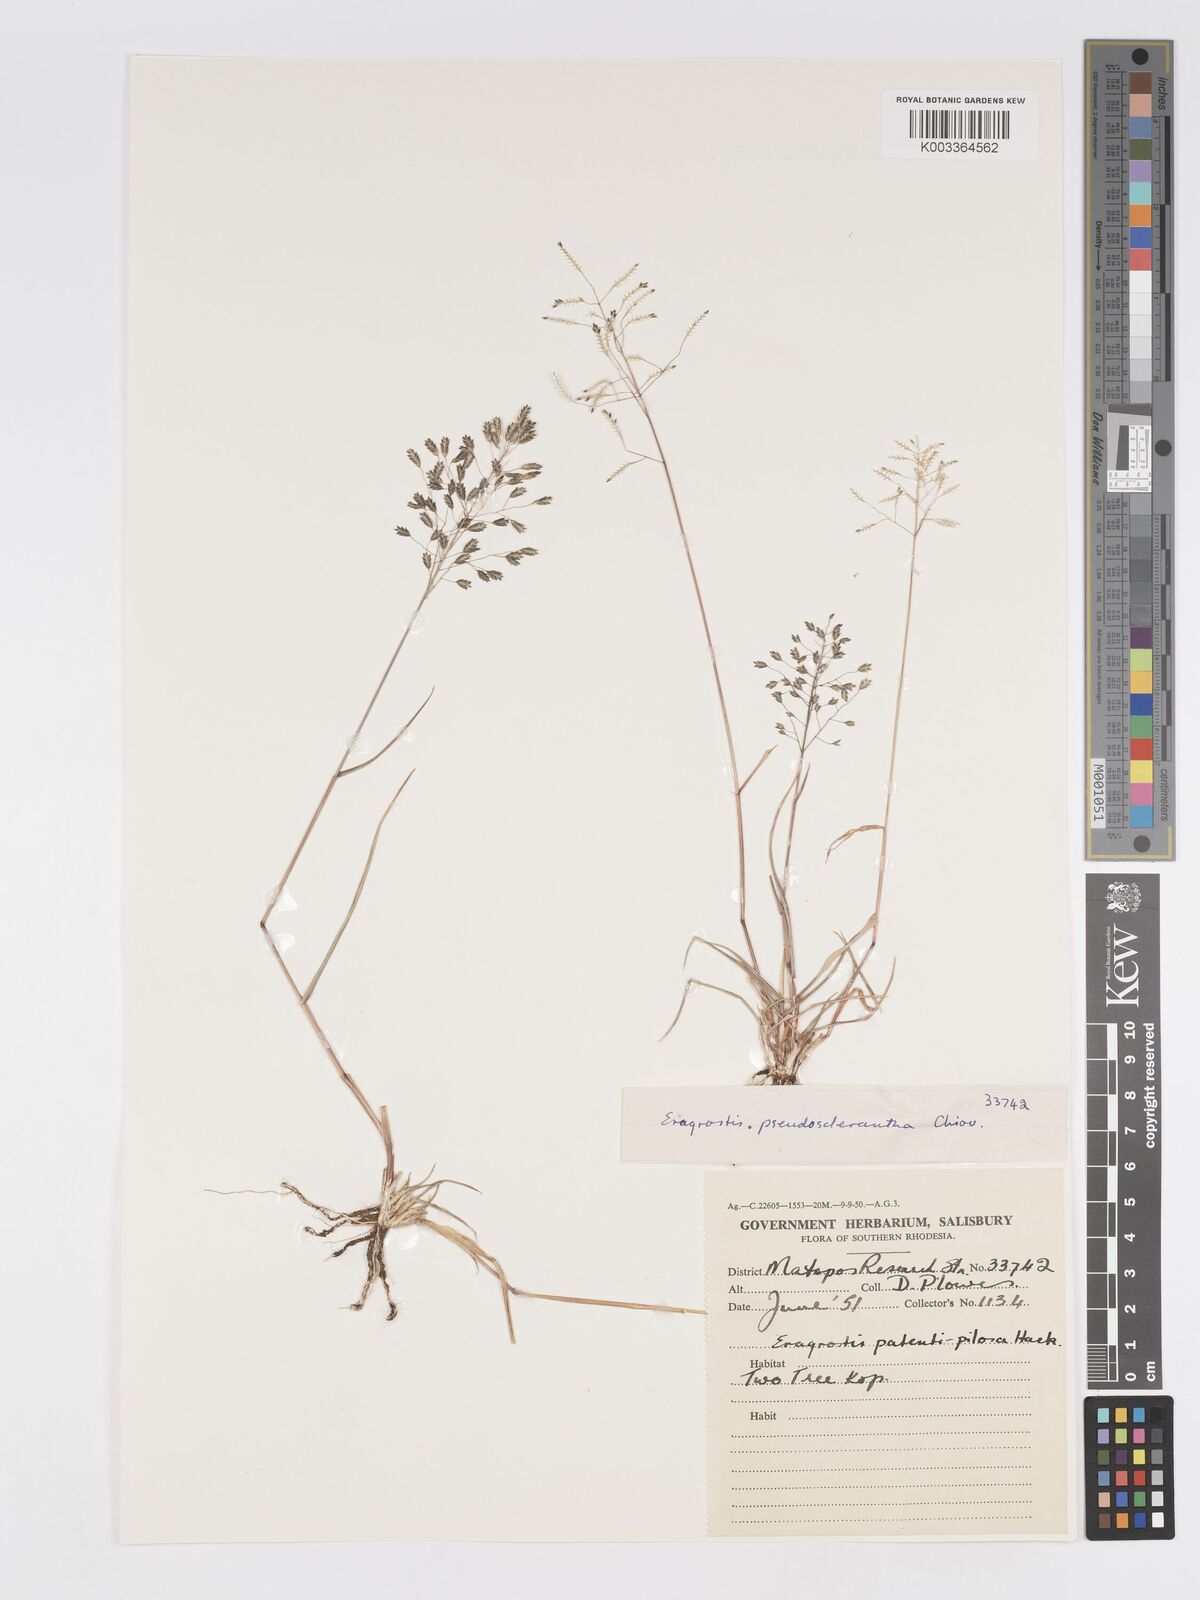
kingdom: Plantae
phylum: Tracheophyta
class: Liliopsida
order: Poales
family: Poaceae
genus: Eragrostis
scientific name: Eragrostis patentipilosa
